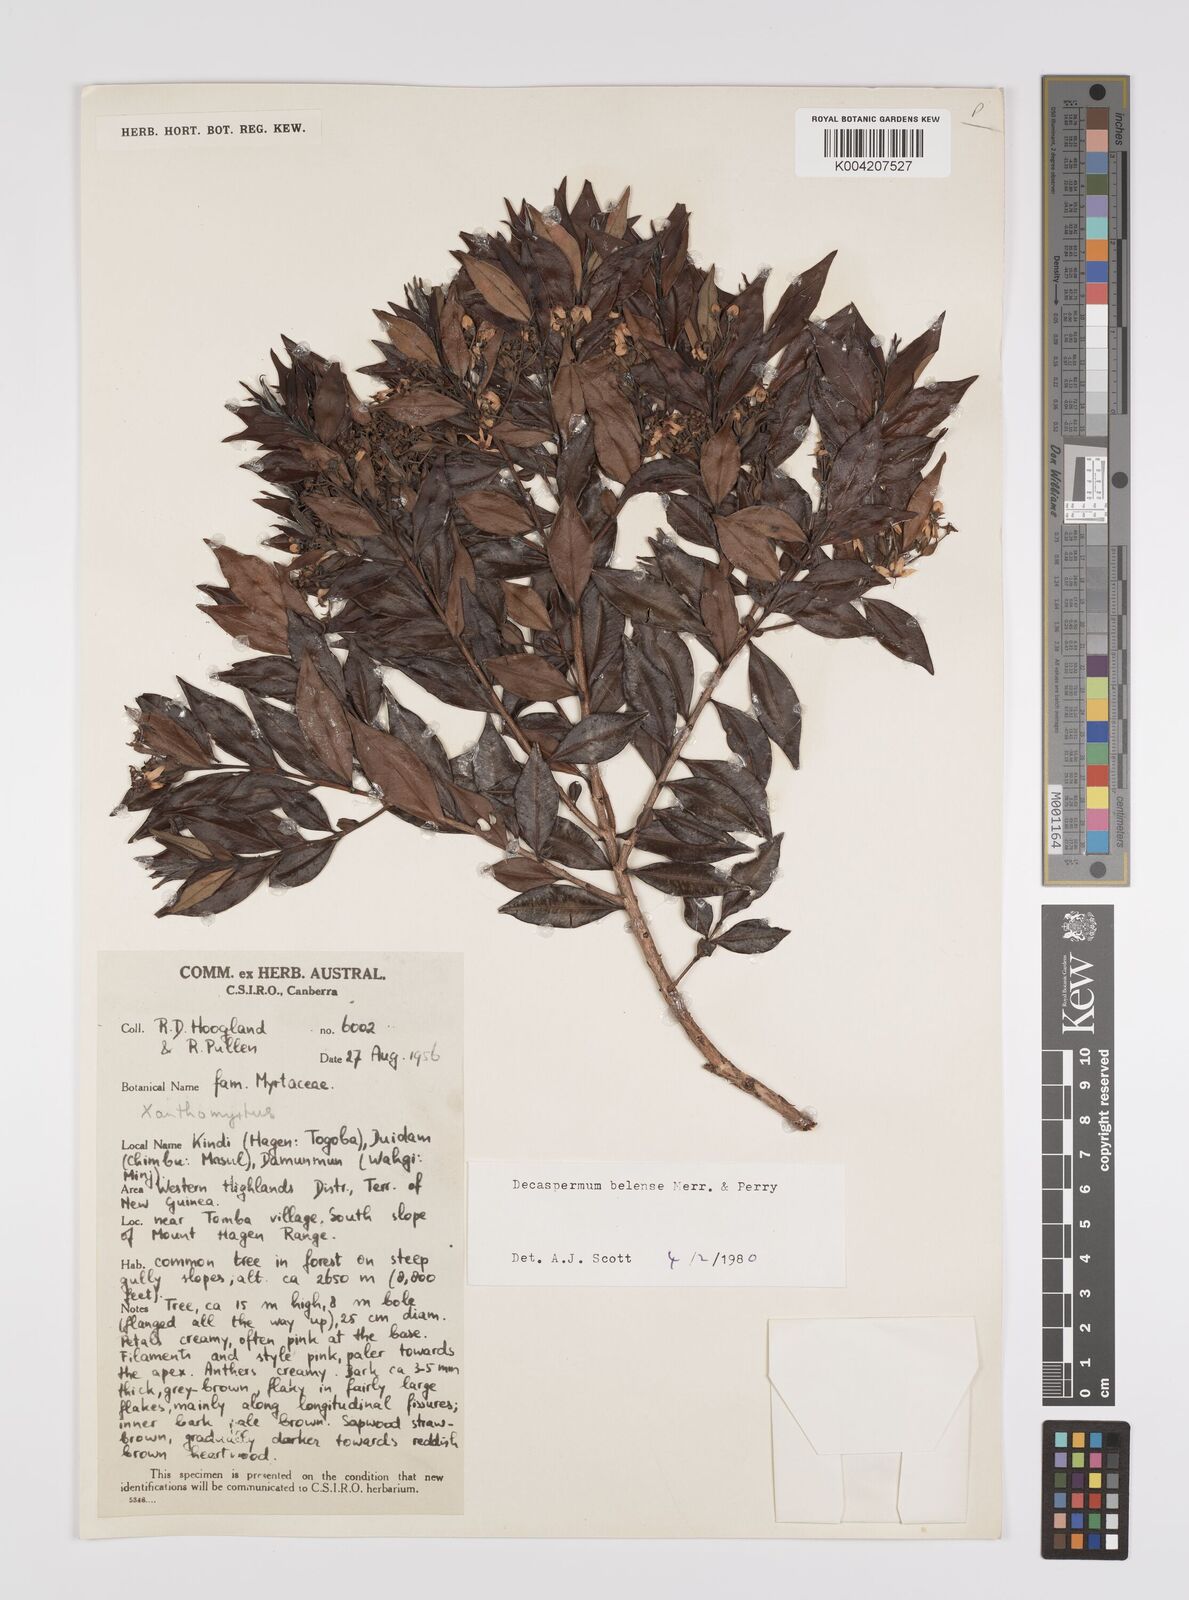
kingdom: Plantae
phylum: Tracheophyta
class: Magnoliopsida
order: Myrtales
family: Myrtaceae
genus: Decaspermum
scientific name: Decaspermum belense
